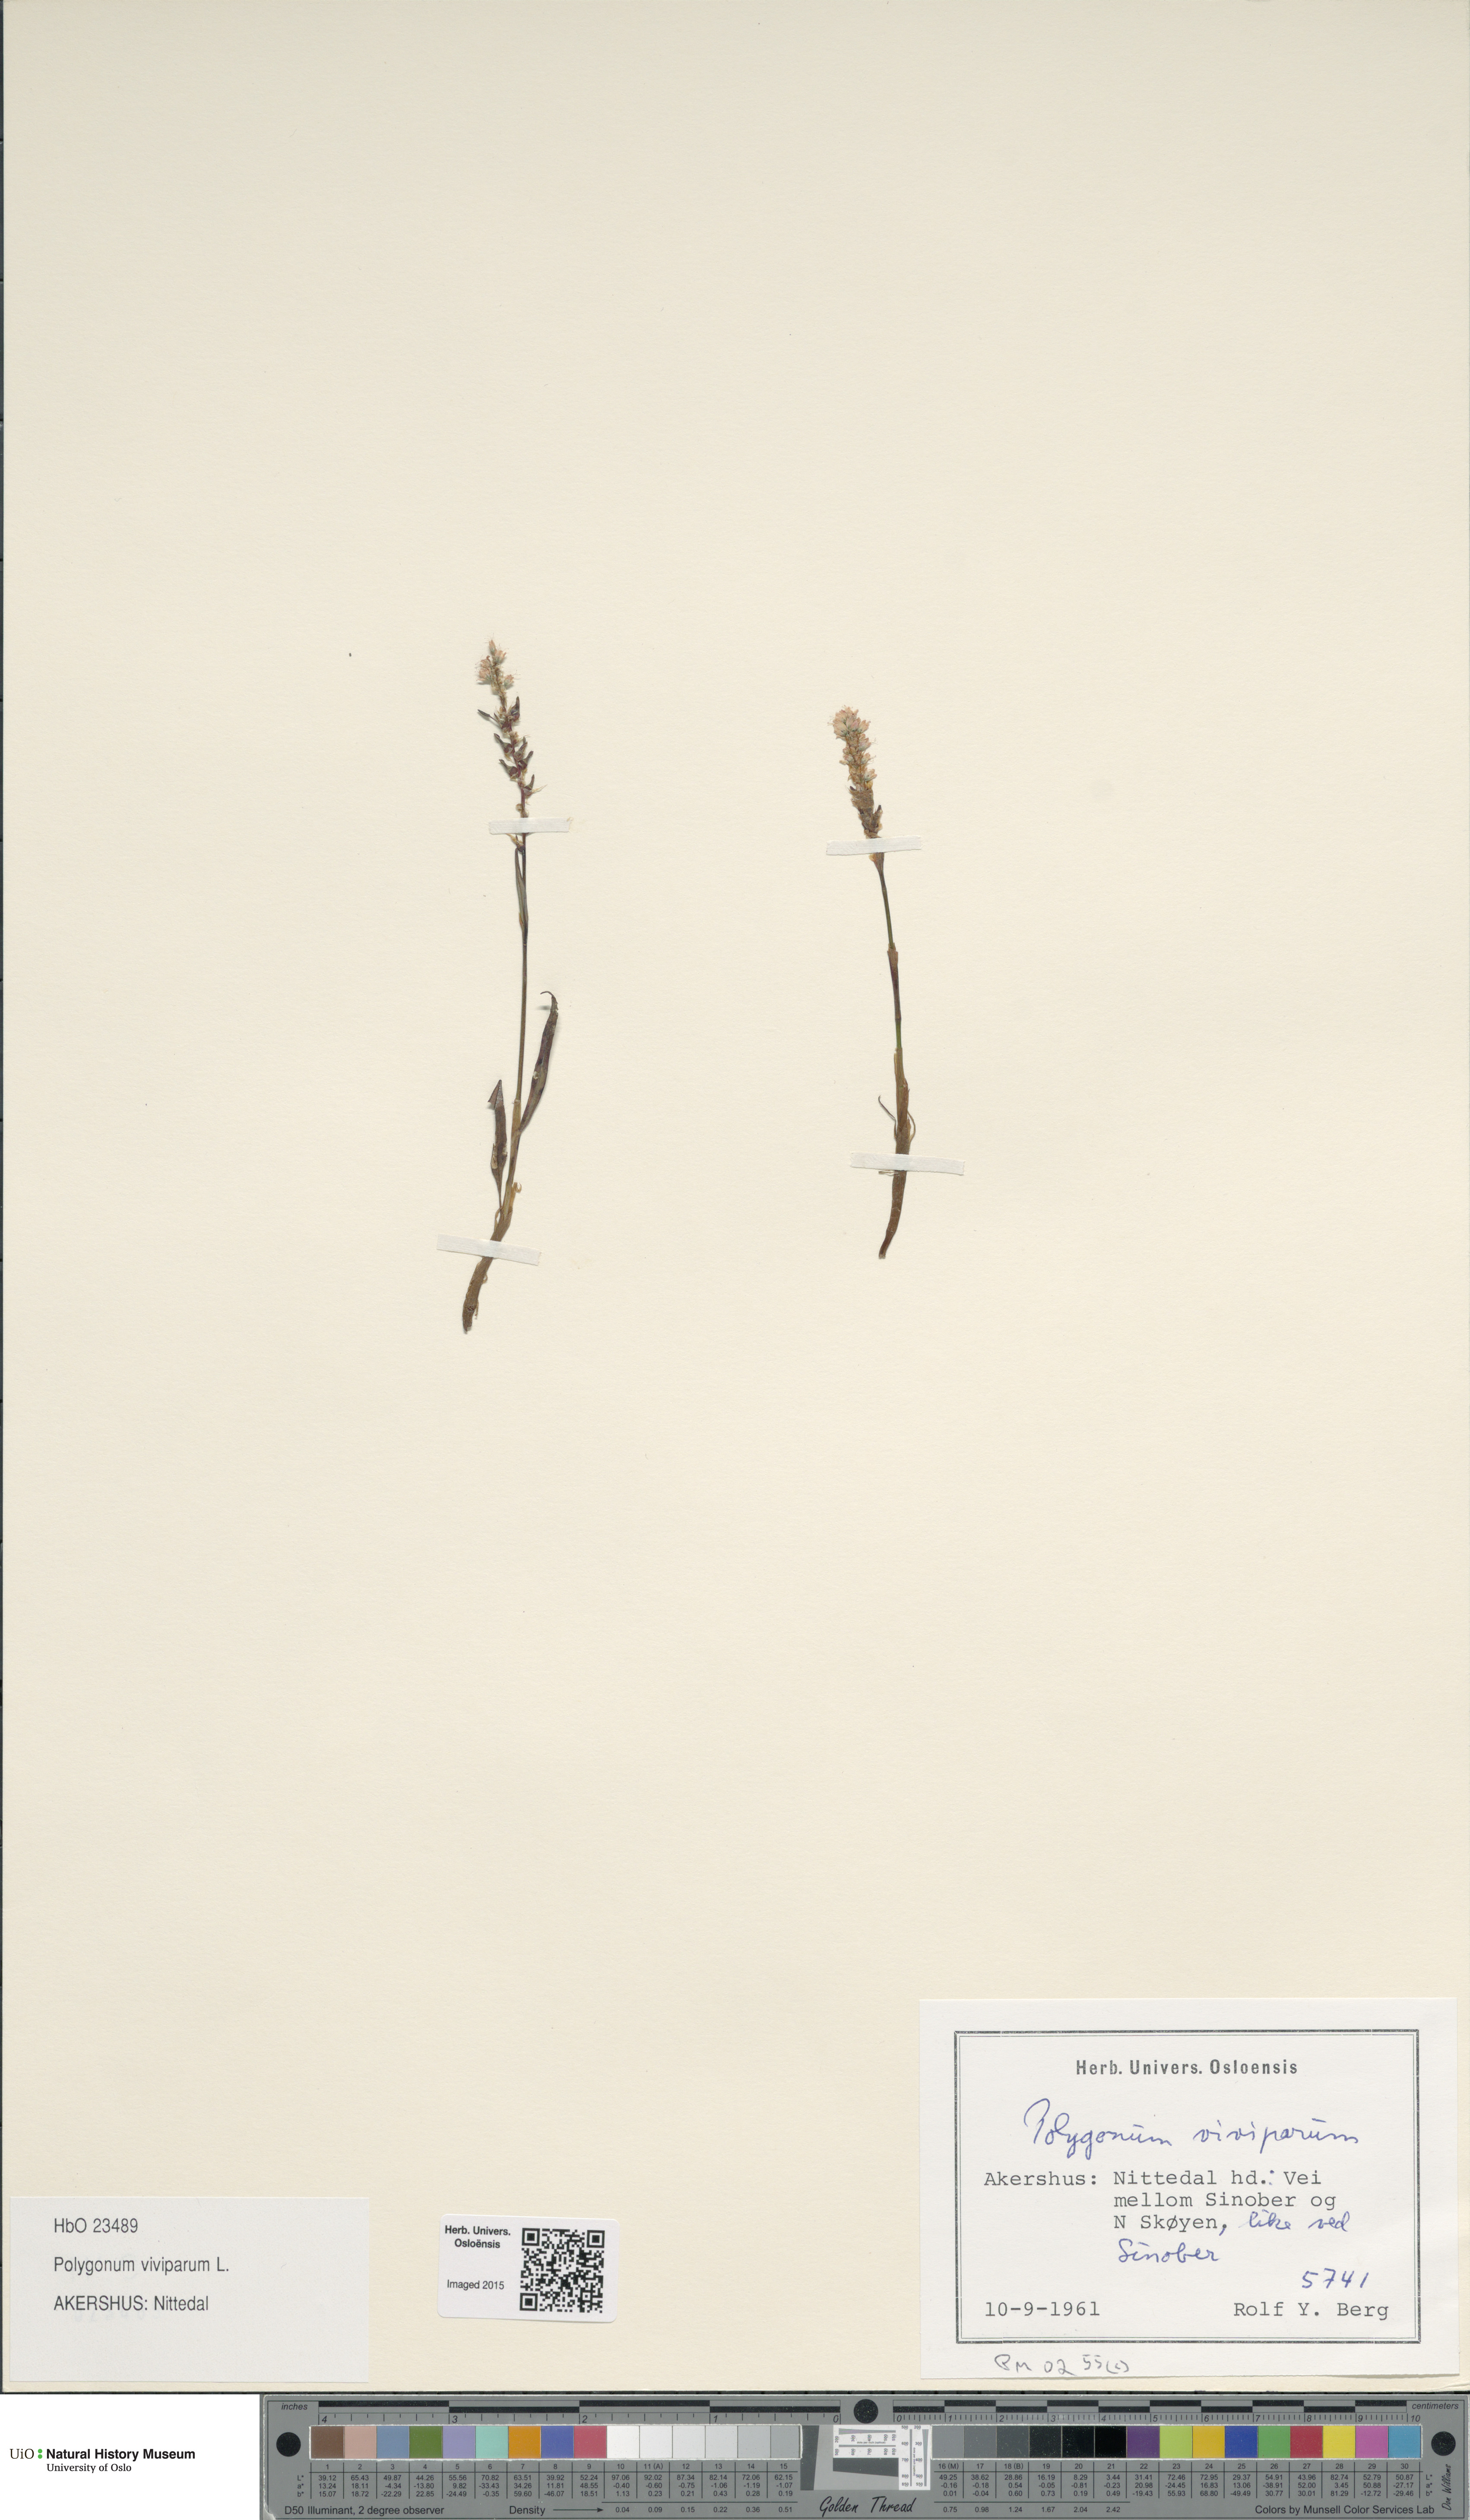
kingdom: Plantae
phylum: Tracheophyta
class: Magnoliopsida
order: Caryophyllales
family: Polygonaceae
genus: Bistorta
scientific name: Bistorta vivipara
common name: Alpine bistort
